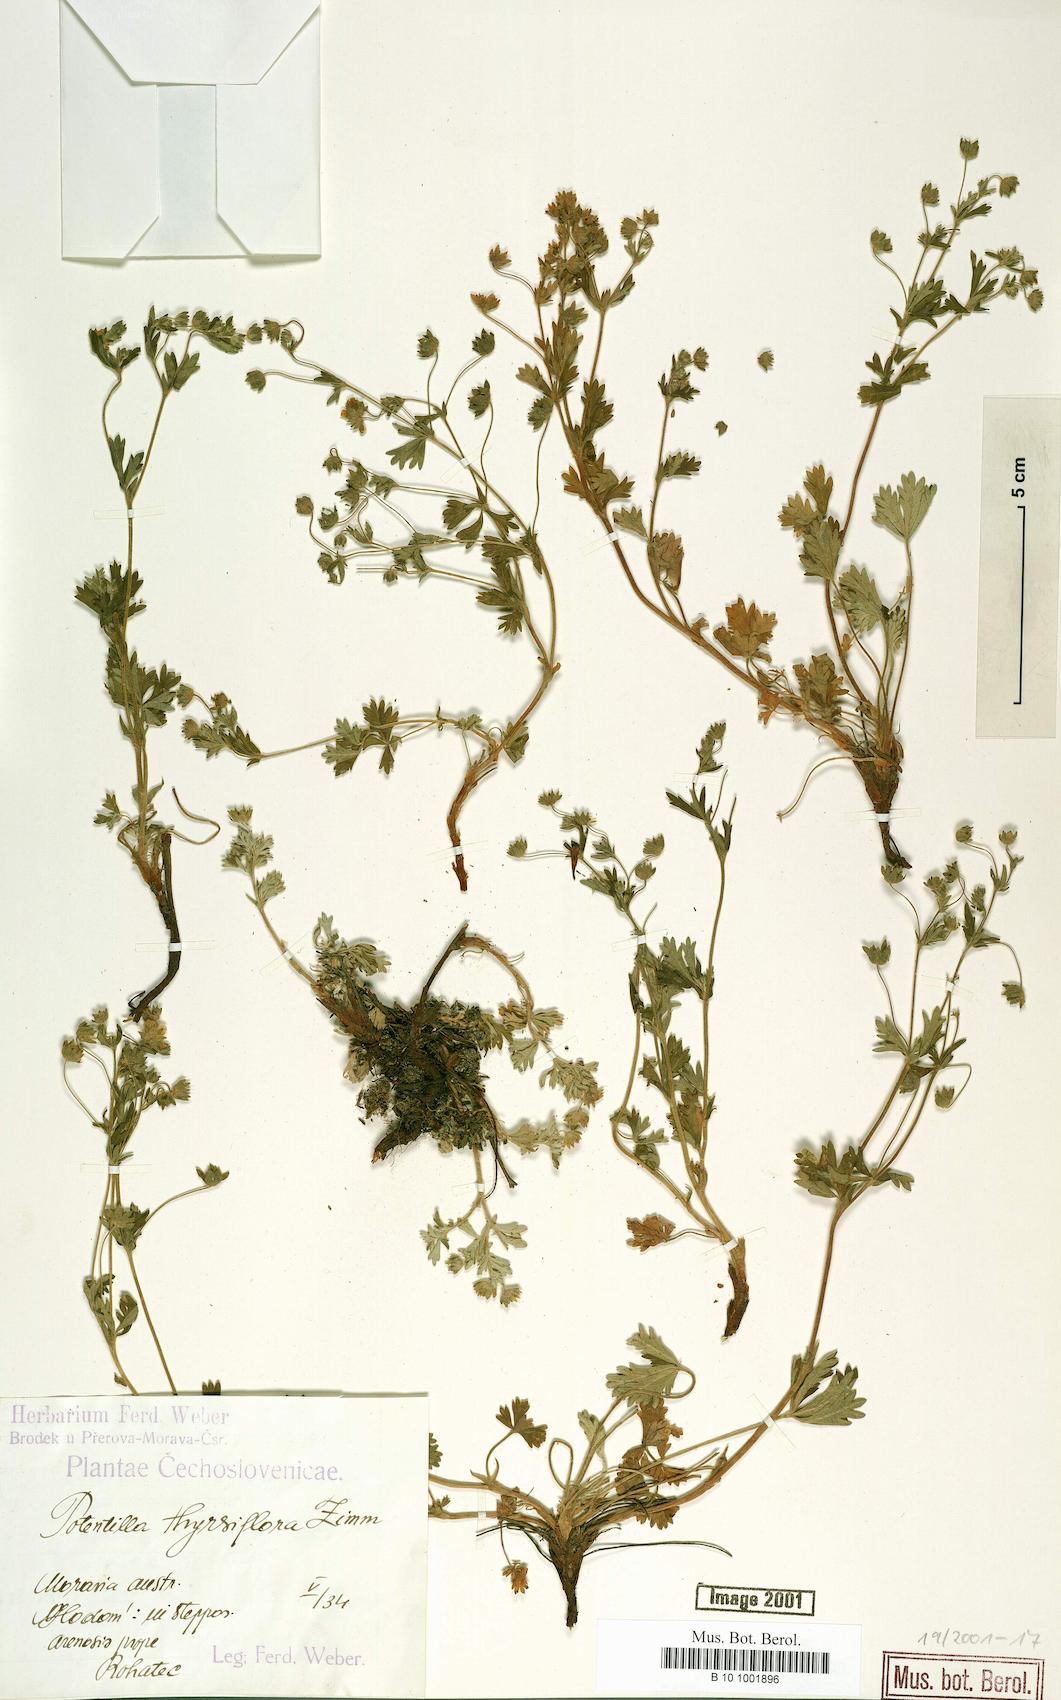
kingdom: Plantae
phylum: Tracheophyta
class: Magnoliopsida
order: Rosales
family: Rosaceae
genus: Potentilla
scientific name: Potentilla thyrsiflora
